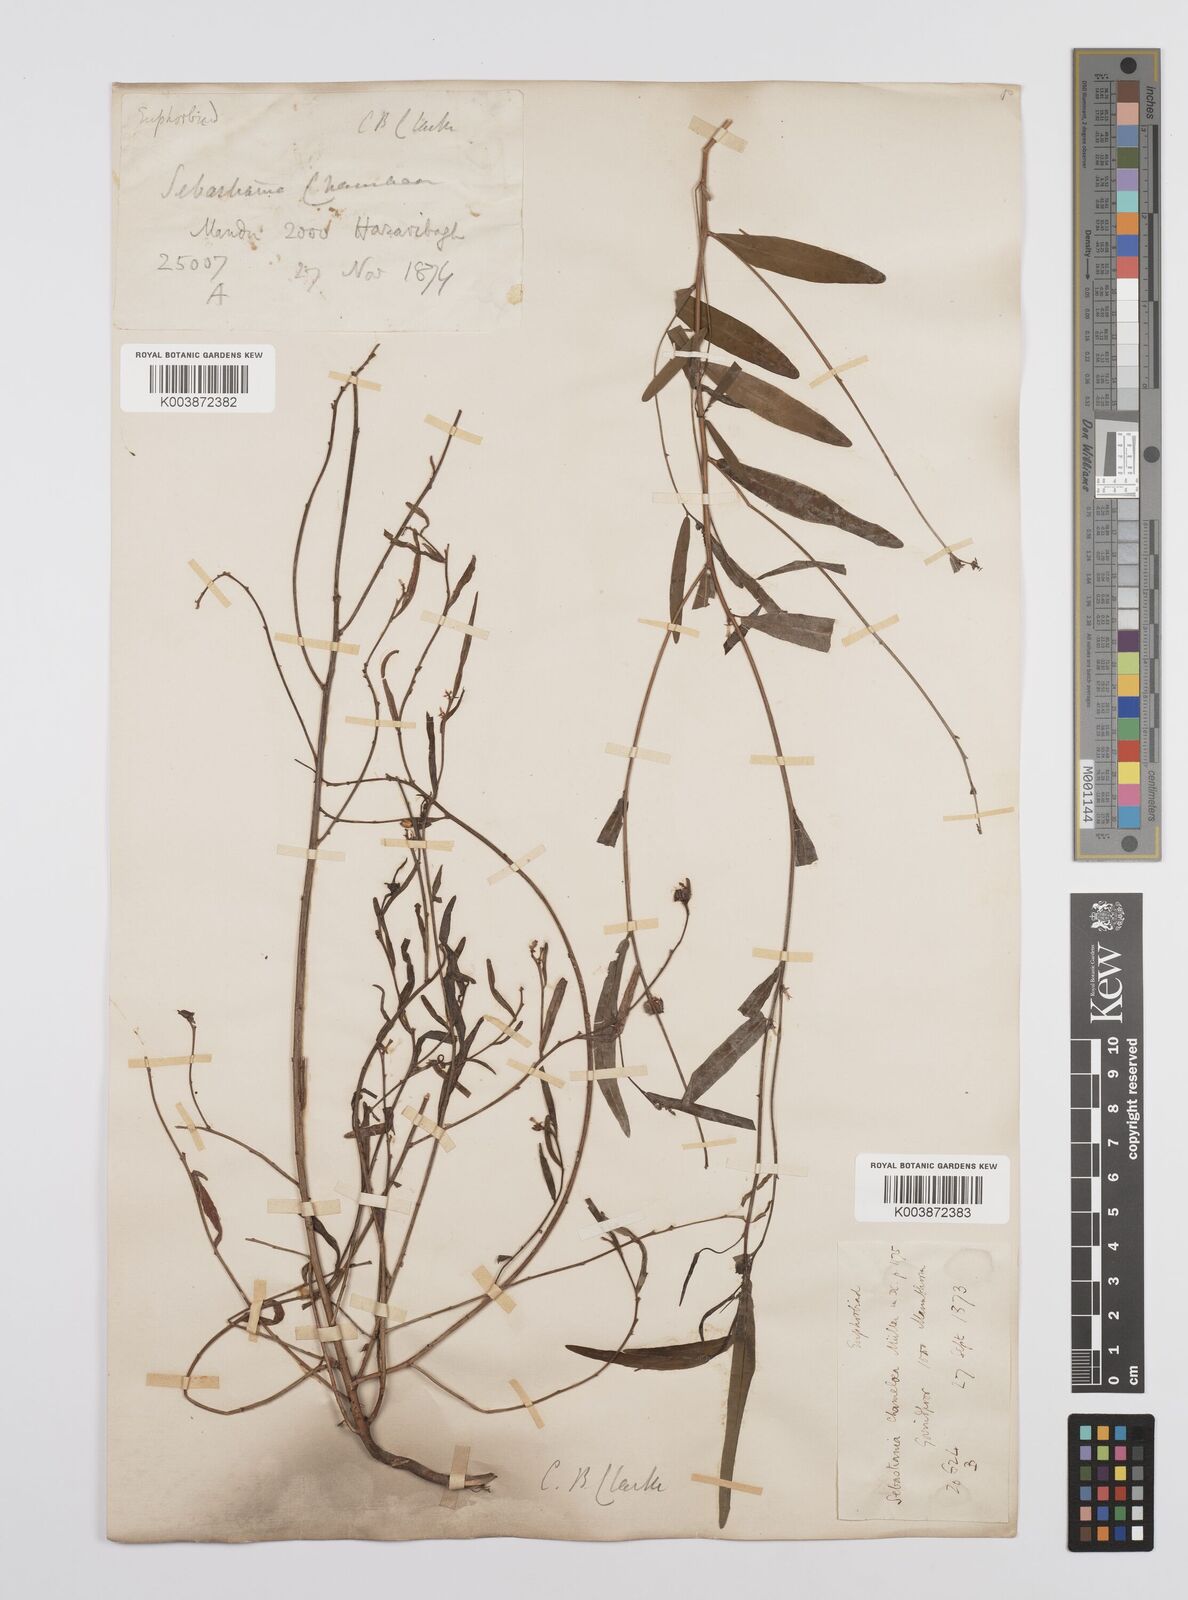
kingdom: Plantae
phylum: Tracheophyta
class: Magnoliopsida
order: Malpighiales
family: Euphorbiaceae
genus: Microstachys
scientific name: Microstachys chamaelea
